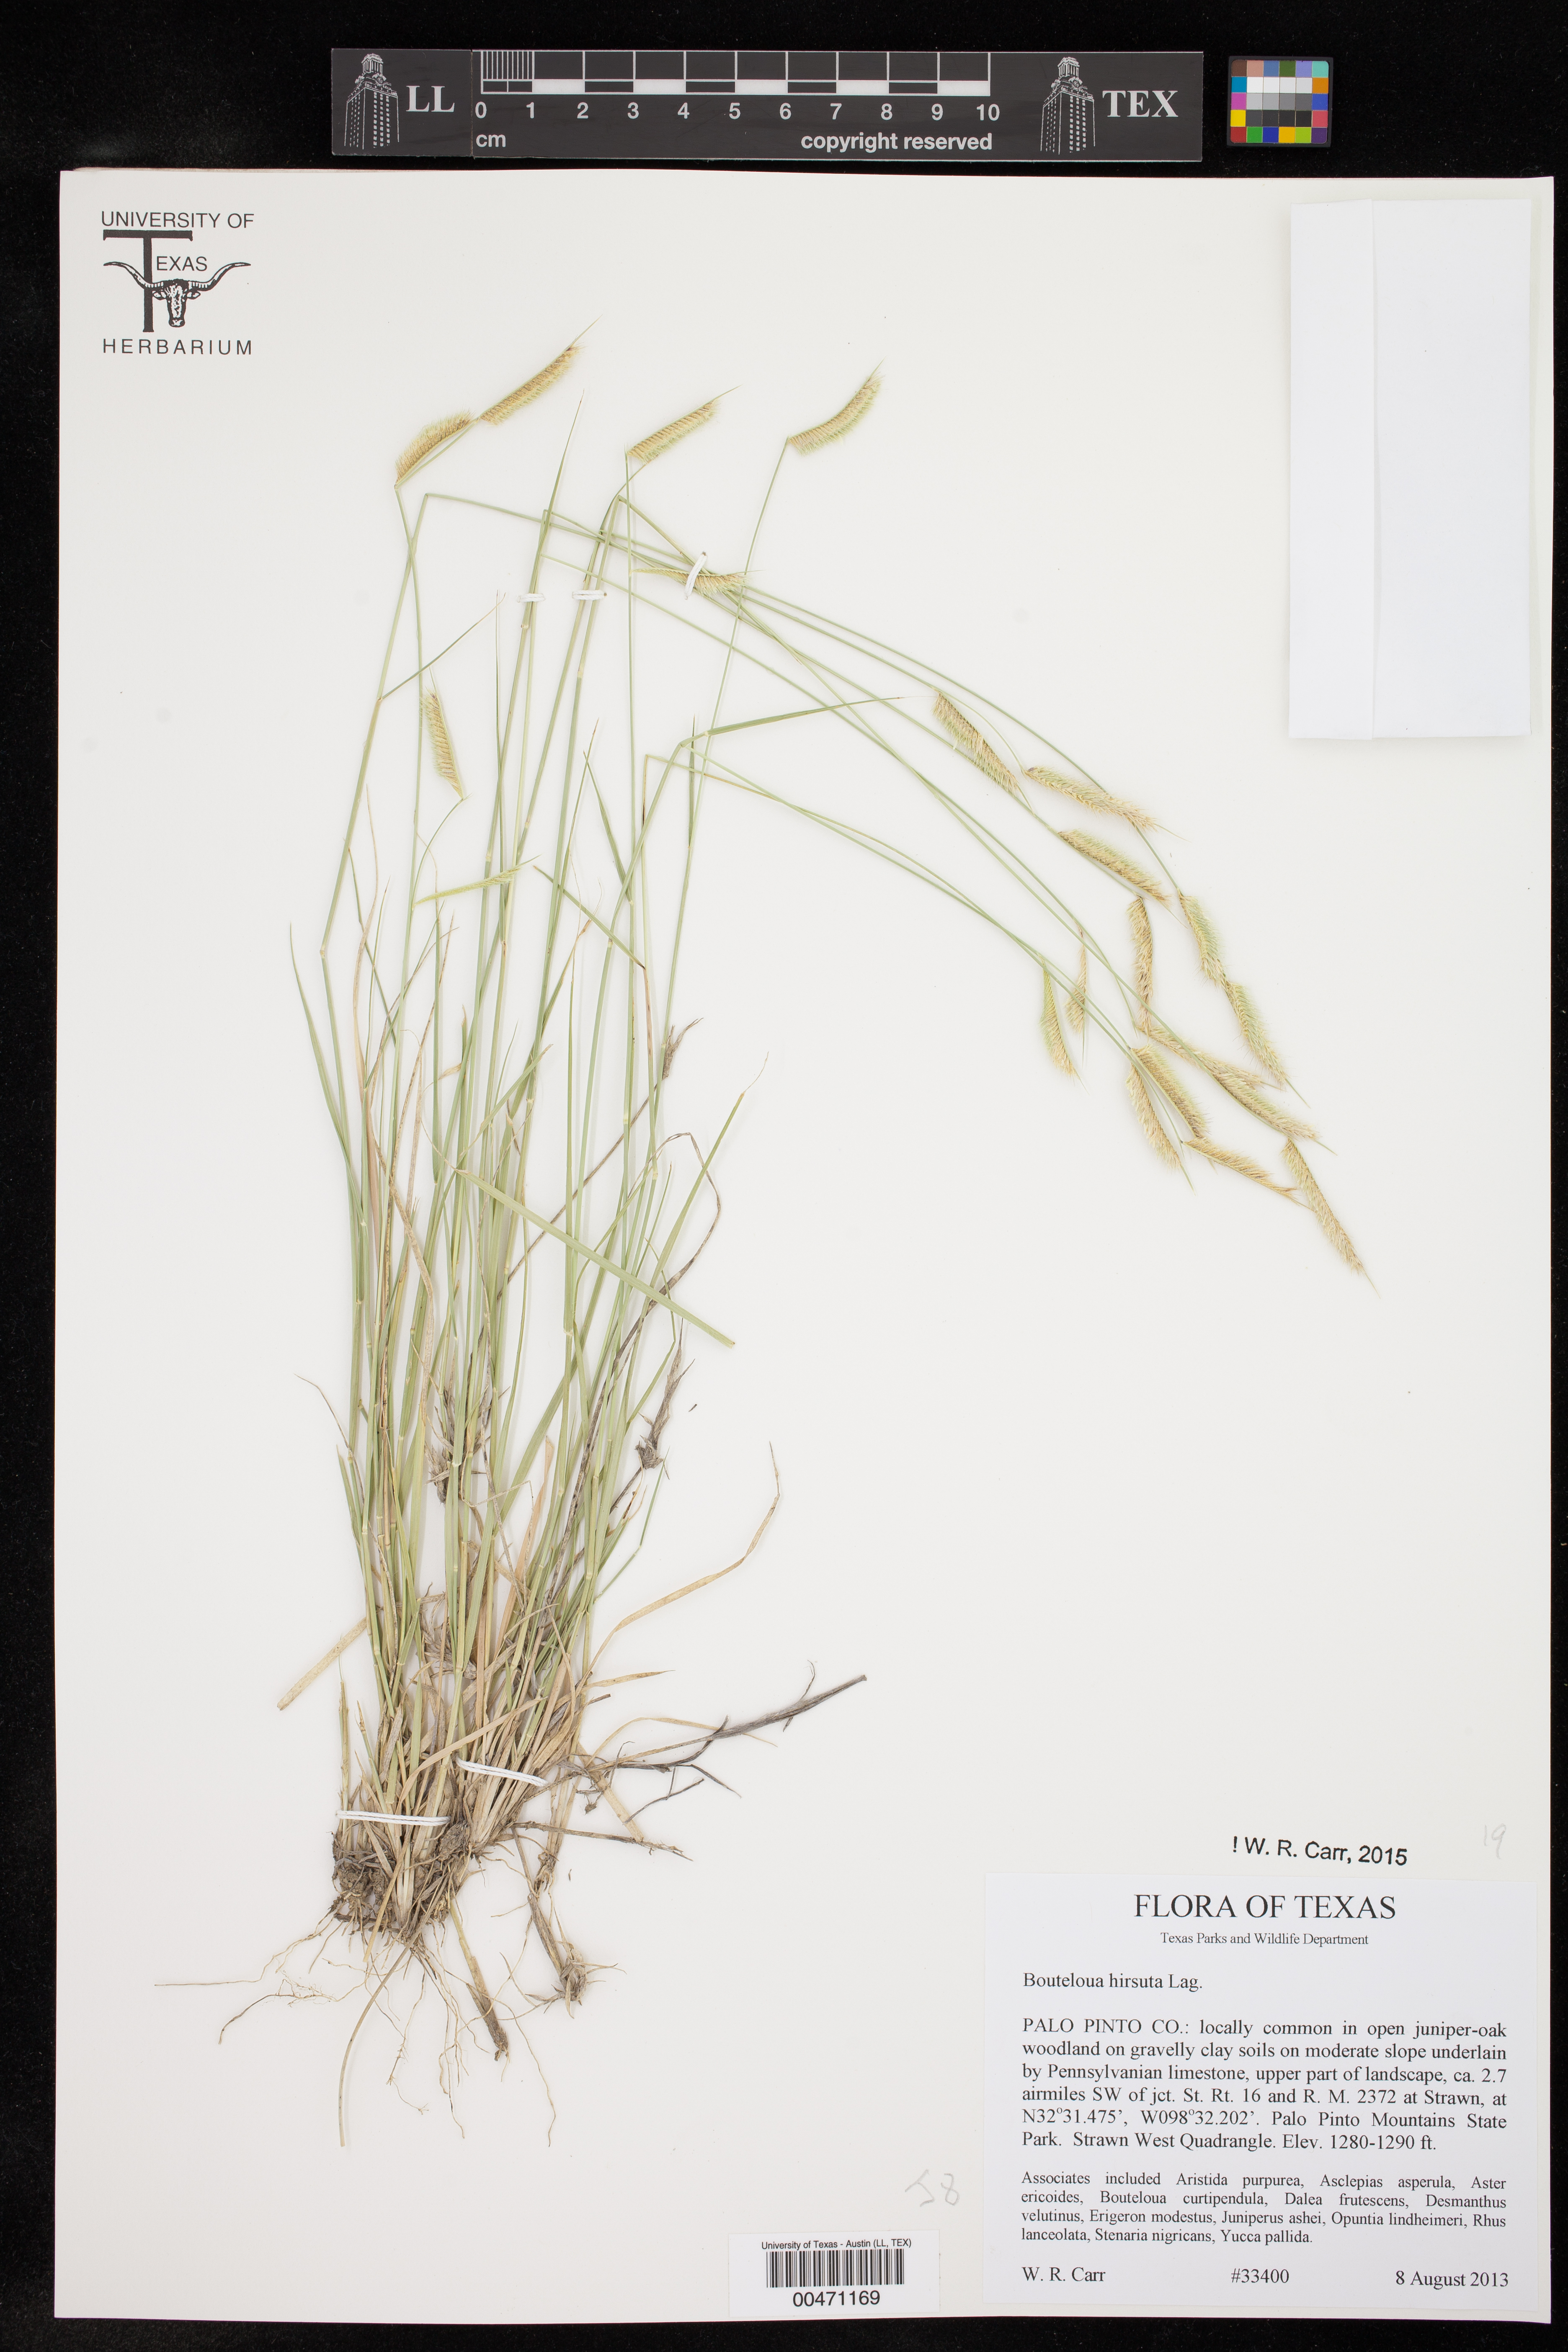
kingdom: Plantae
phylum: Tracheophyta
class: Liliopsida
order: Poales
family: Poaceae
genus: Bouteloua
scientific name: Bouteloua hirsuta
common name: Hairy grama
